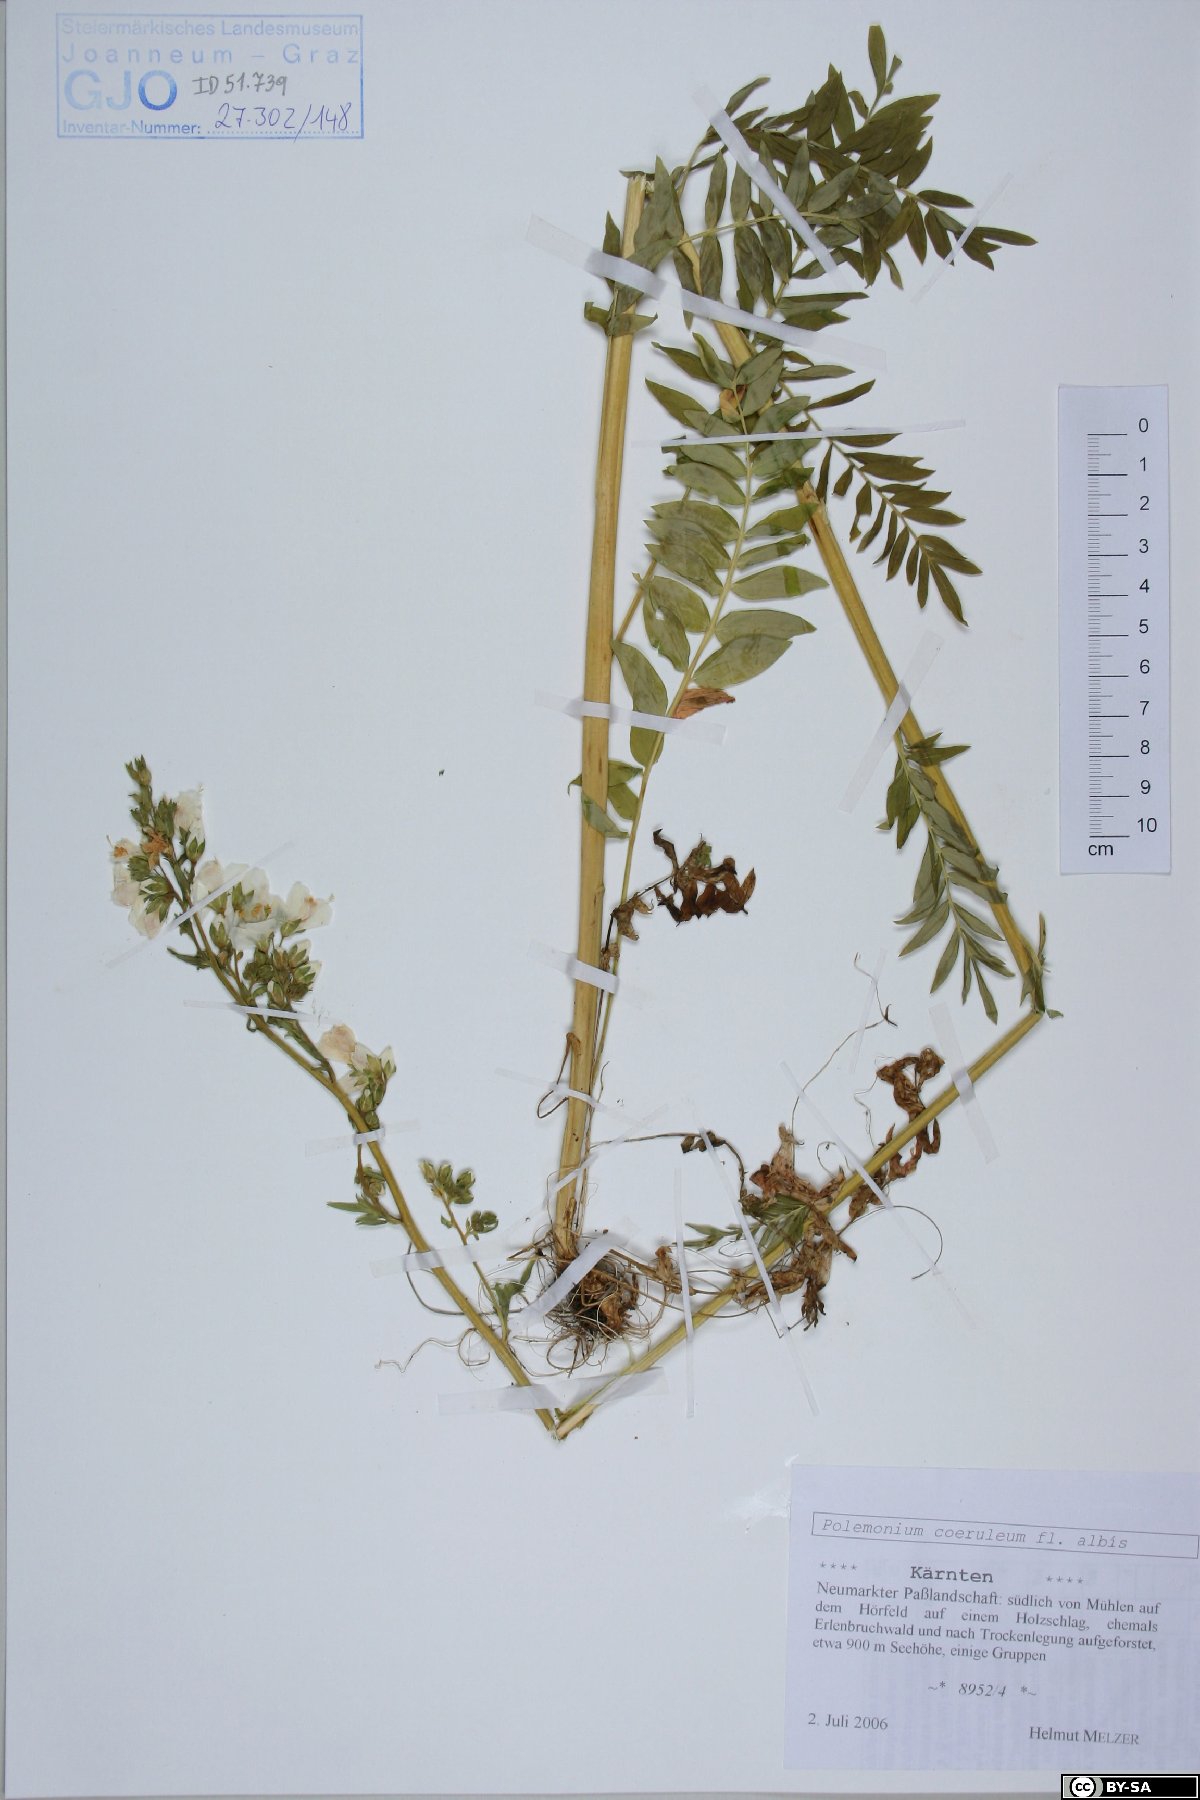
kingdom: Plantae
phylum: Tracheophyta
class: Magnoliopsida
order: Ericales
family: Polemoniaceae
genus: Polemonium
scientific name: Polemonium caeruleum
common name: Jacob's-ladder
